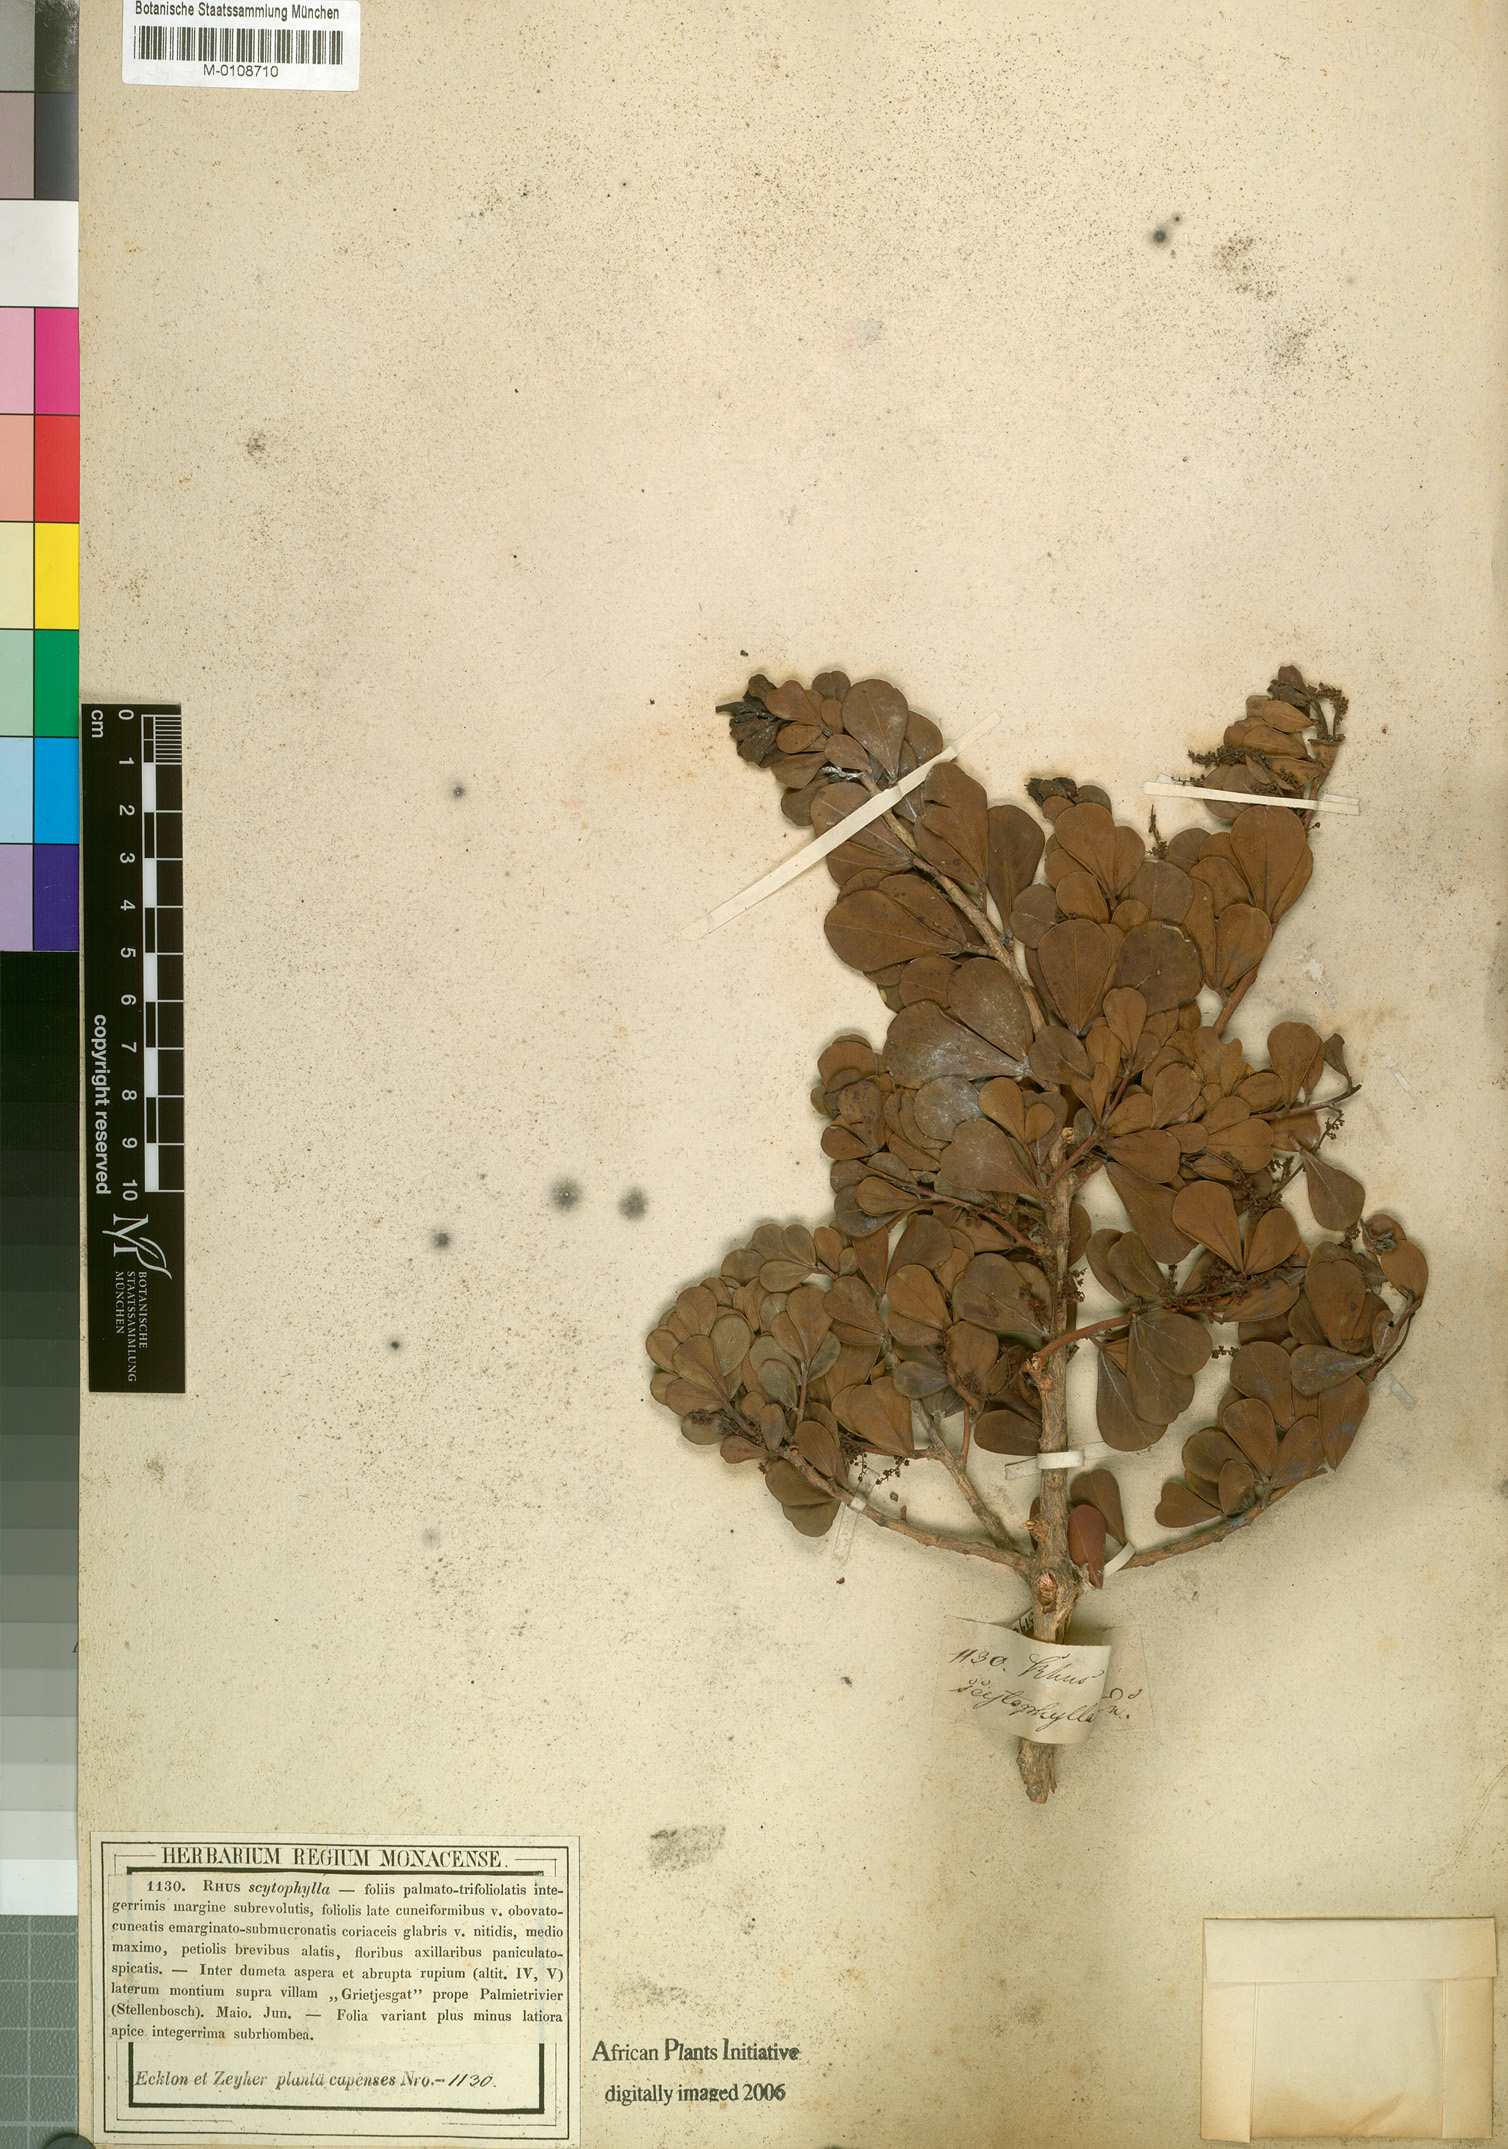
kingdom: Plantae
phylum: Tracheophyta
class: Magnoliopsida
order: Sapindales
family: Anacardiaceae
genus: Searsia
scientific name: Searsia scytophylla
